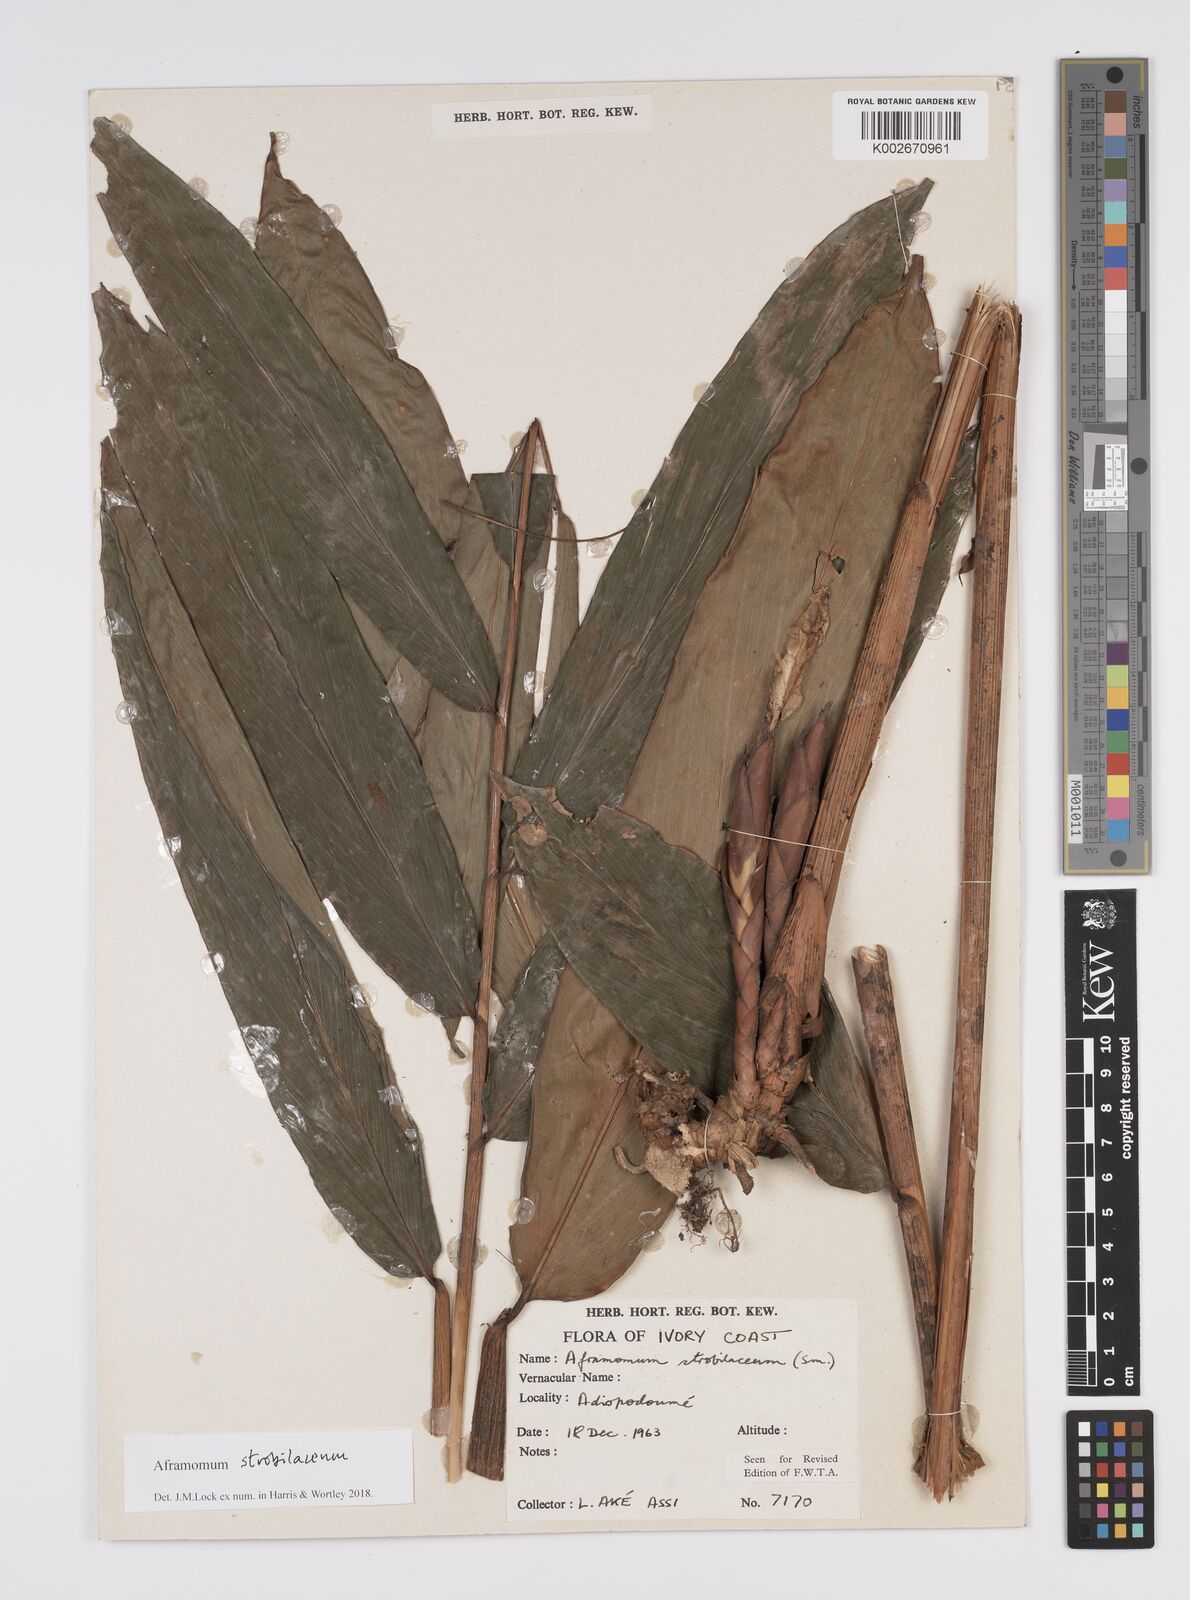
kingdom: Plantae
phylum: Tracheophyta
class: Liliopsida
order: Zingiberales
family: Zingiberaceae
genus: Aframomum
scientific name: Aframomum strobilaceum
